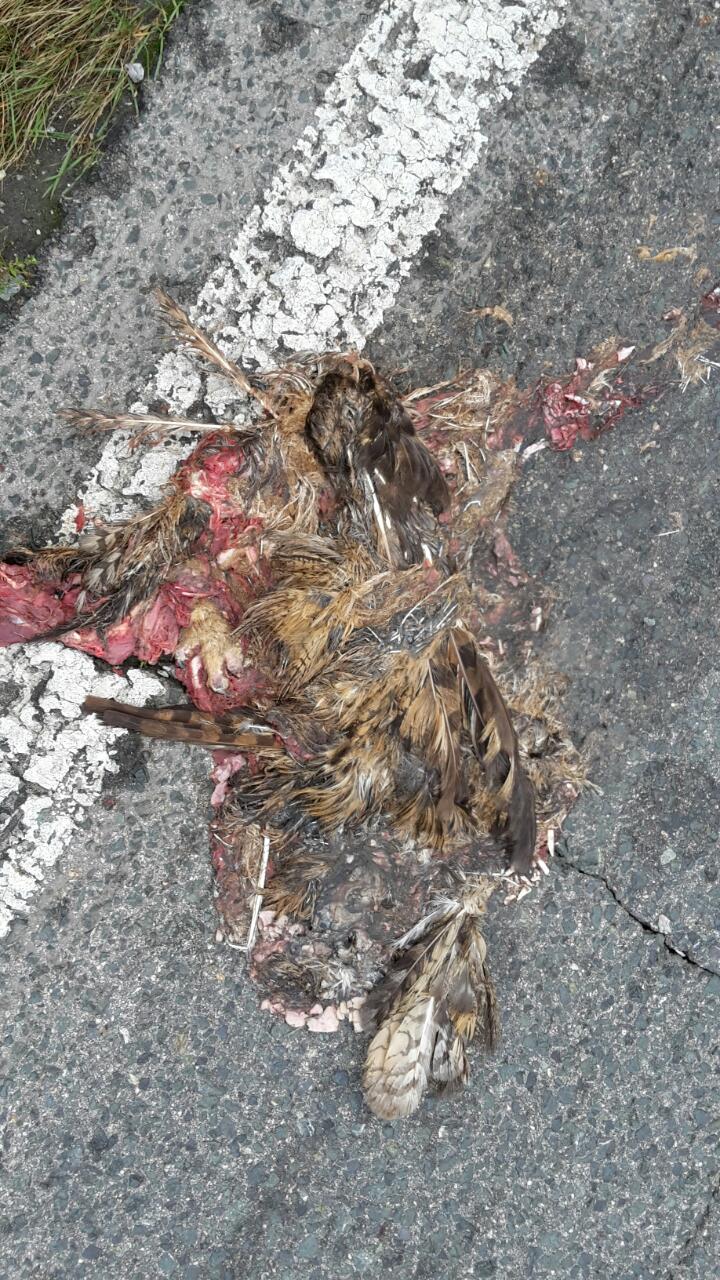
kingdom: Animalia
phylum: Chordata
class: Aves
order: Strigiformes
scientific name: Strigiformes
